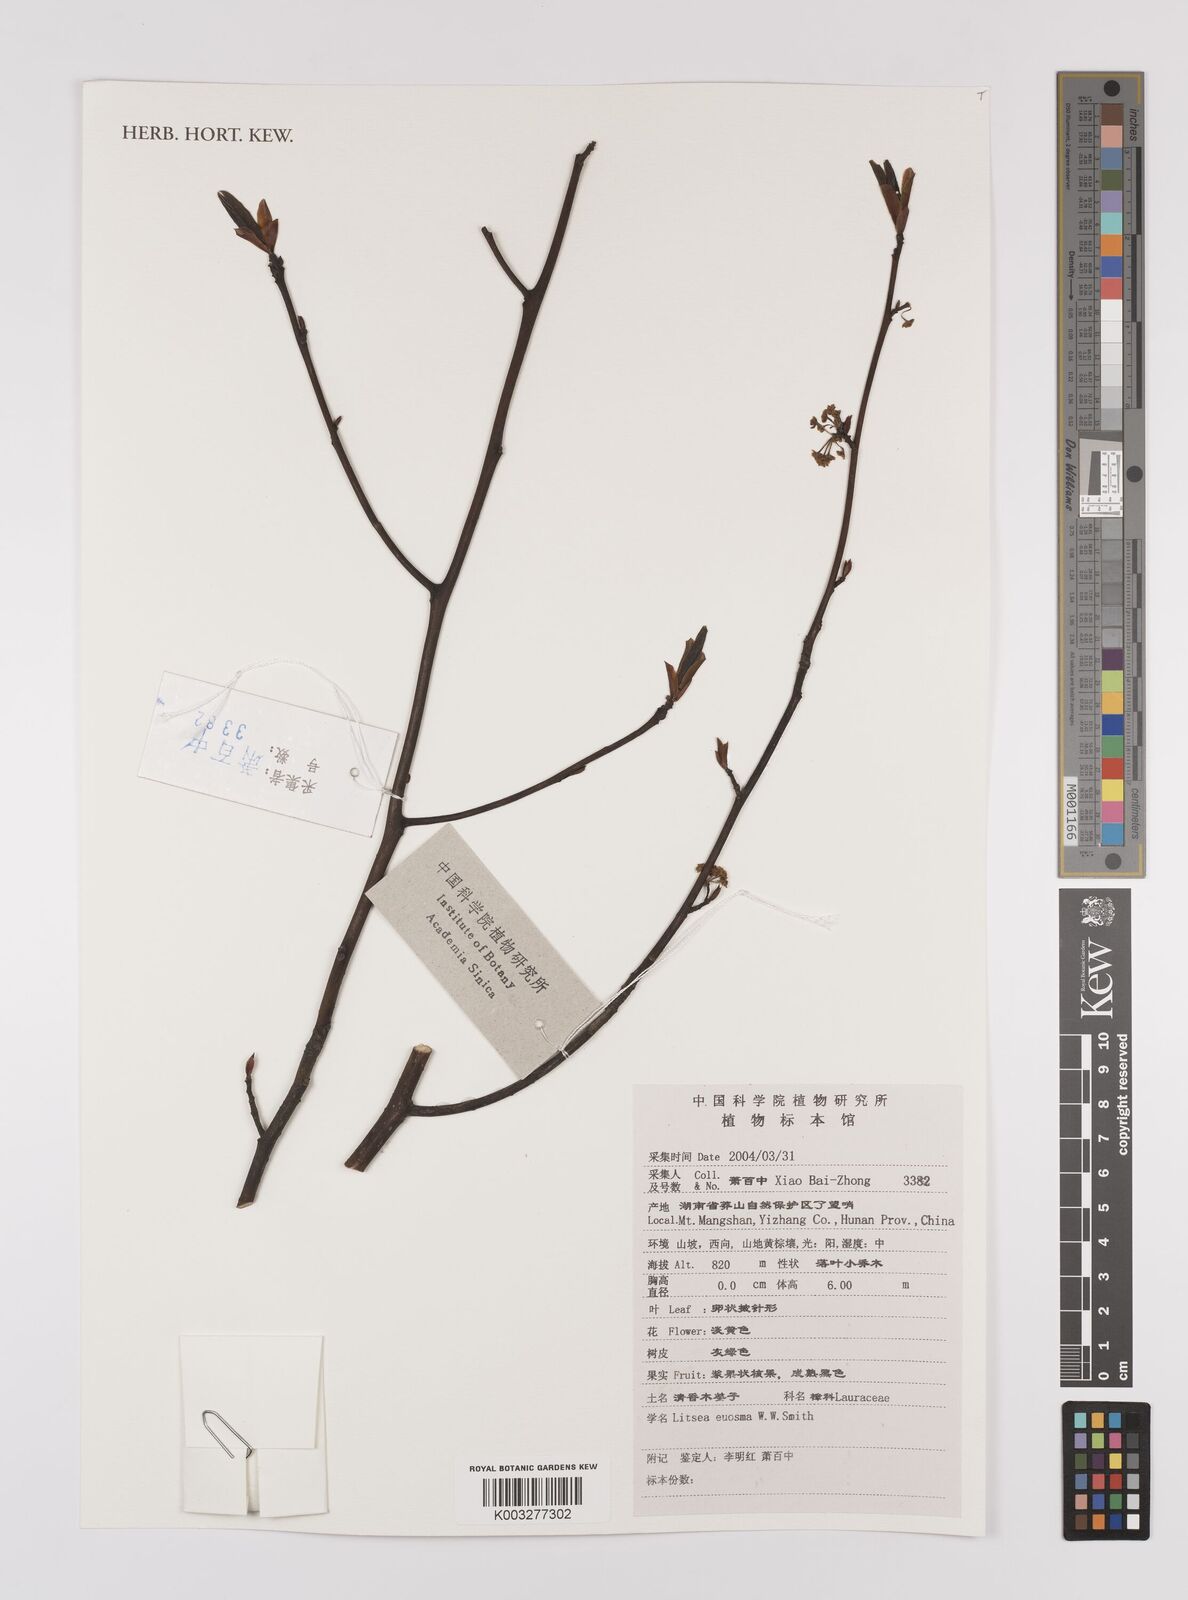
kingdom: Plantae
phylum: Tracheophyta
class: Magnoliopsida
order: Laurales
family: Lauraceae
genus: Litsea
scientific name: Litsea euosma
